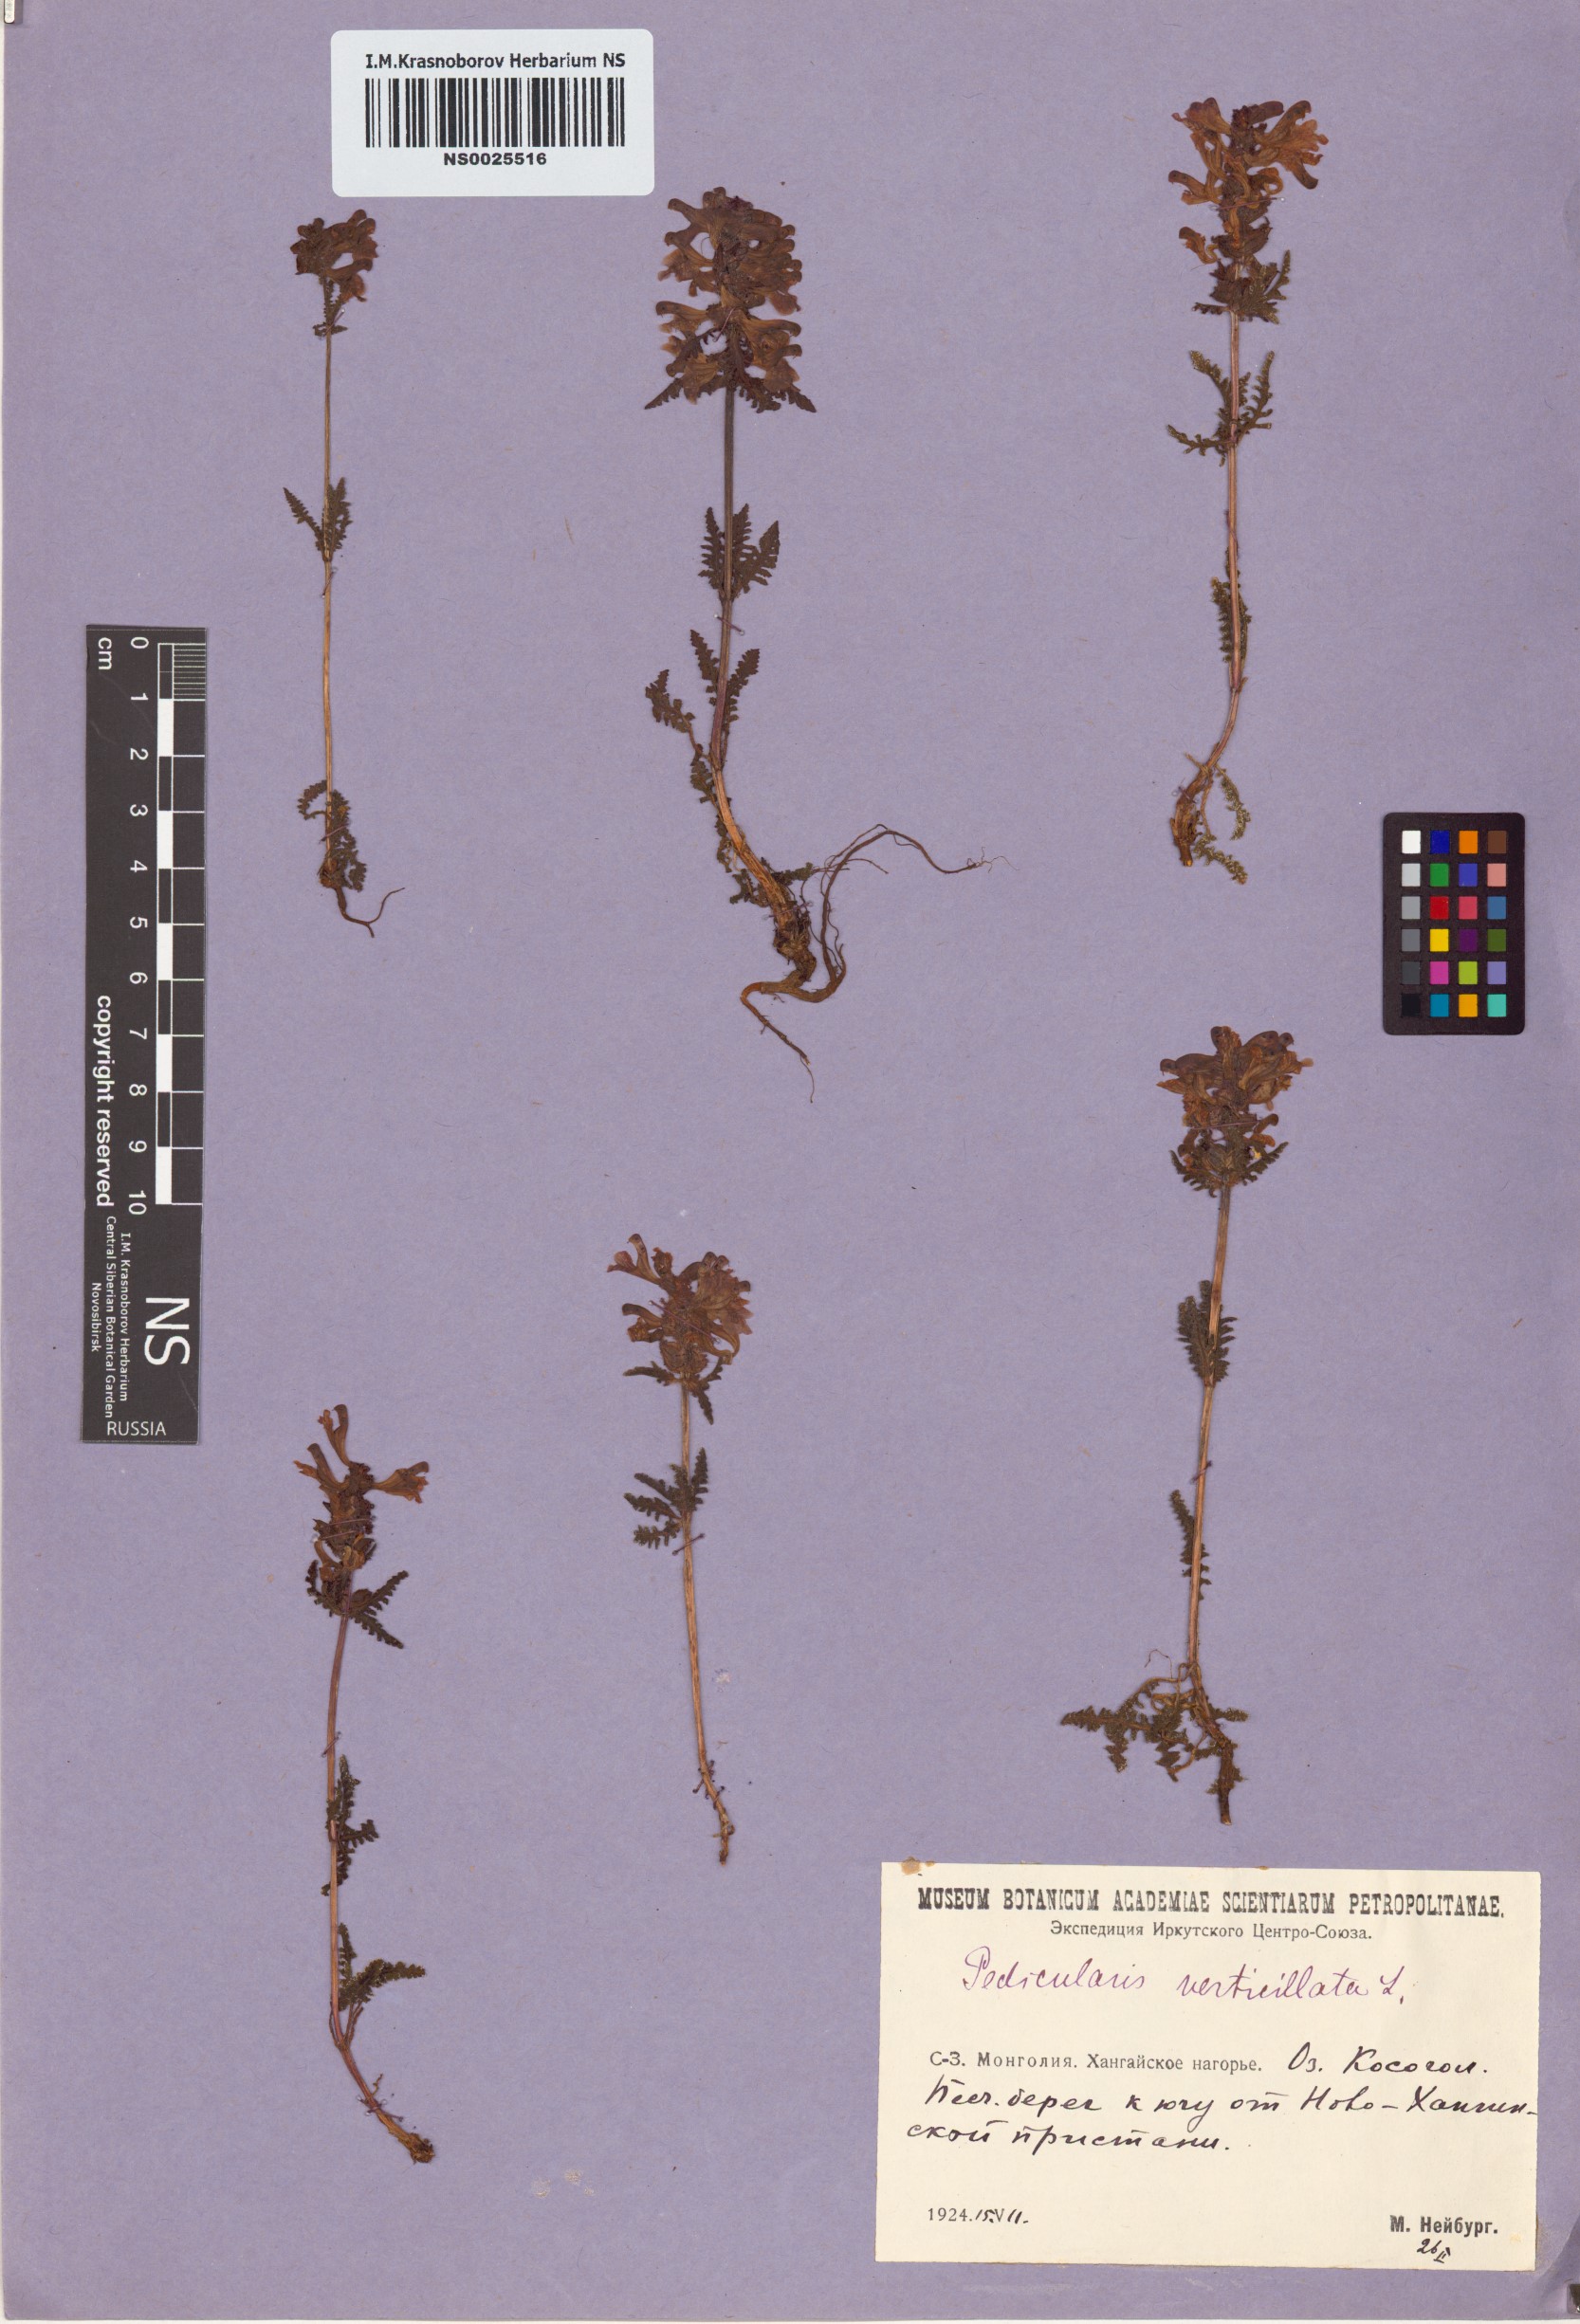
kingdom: Plantae
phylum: Tracheophyta
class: Magnoliopsida
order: Lamiales
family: Orobanchaceae
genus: Pedicularis
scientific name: Pedicularis verticillata
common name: Whorled lousewort
